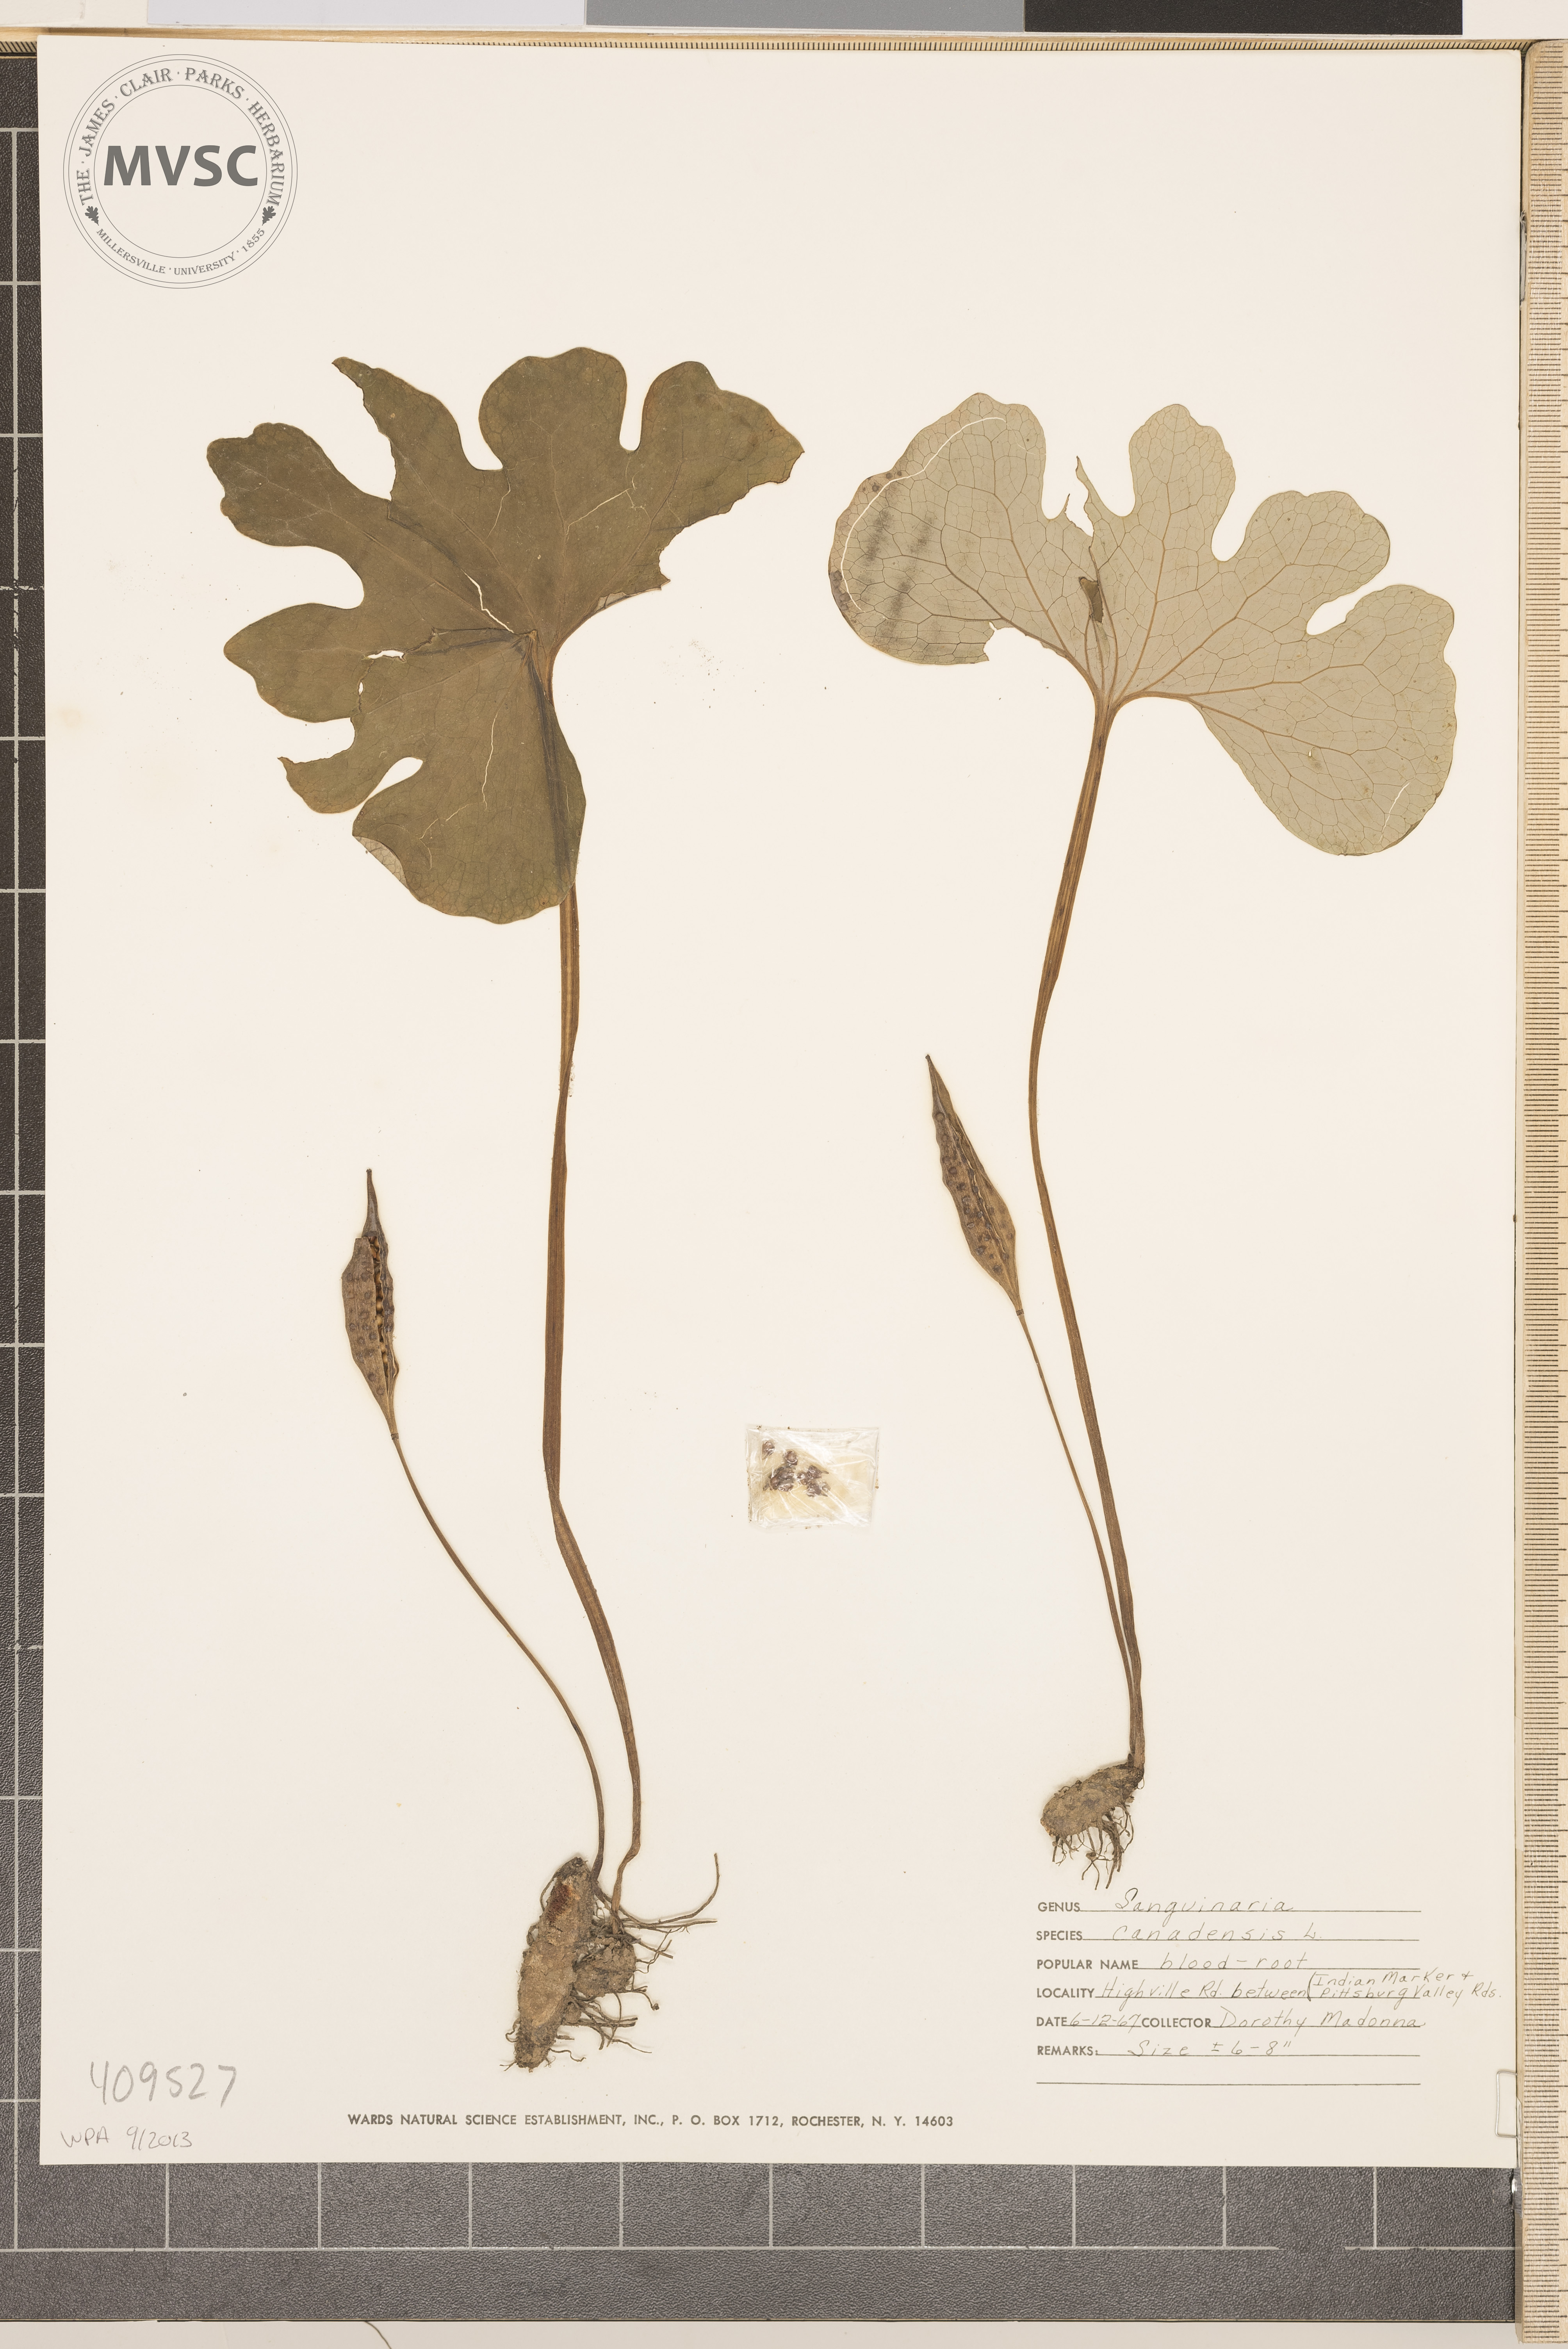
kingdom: Plantae
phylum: Tracheophyta
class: Magnoliopsida
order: Ranunculales
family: Papaveraceae
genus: Sanguinaria
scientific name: Sanguinaria canadensis
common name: Bloodroot
